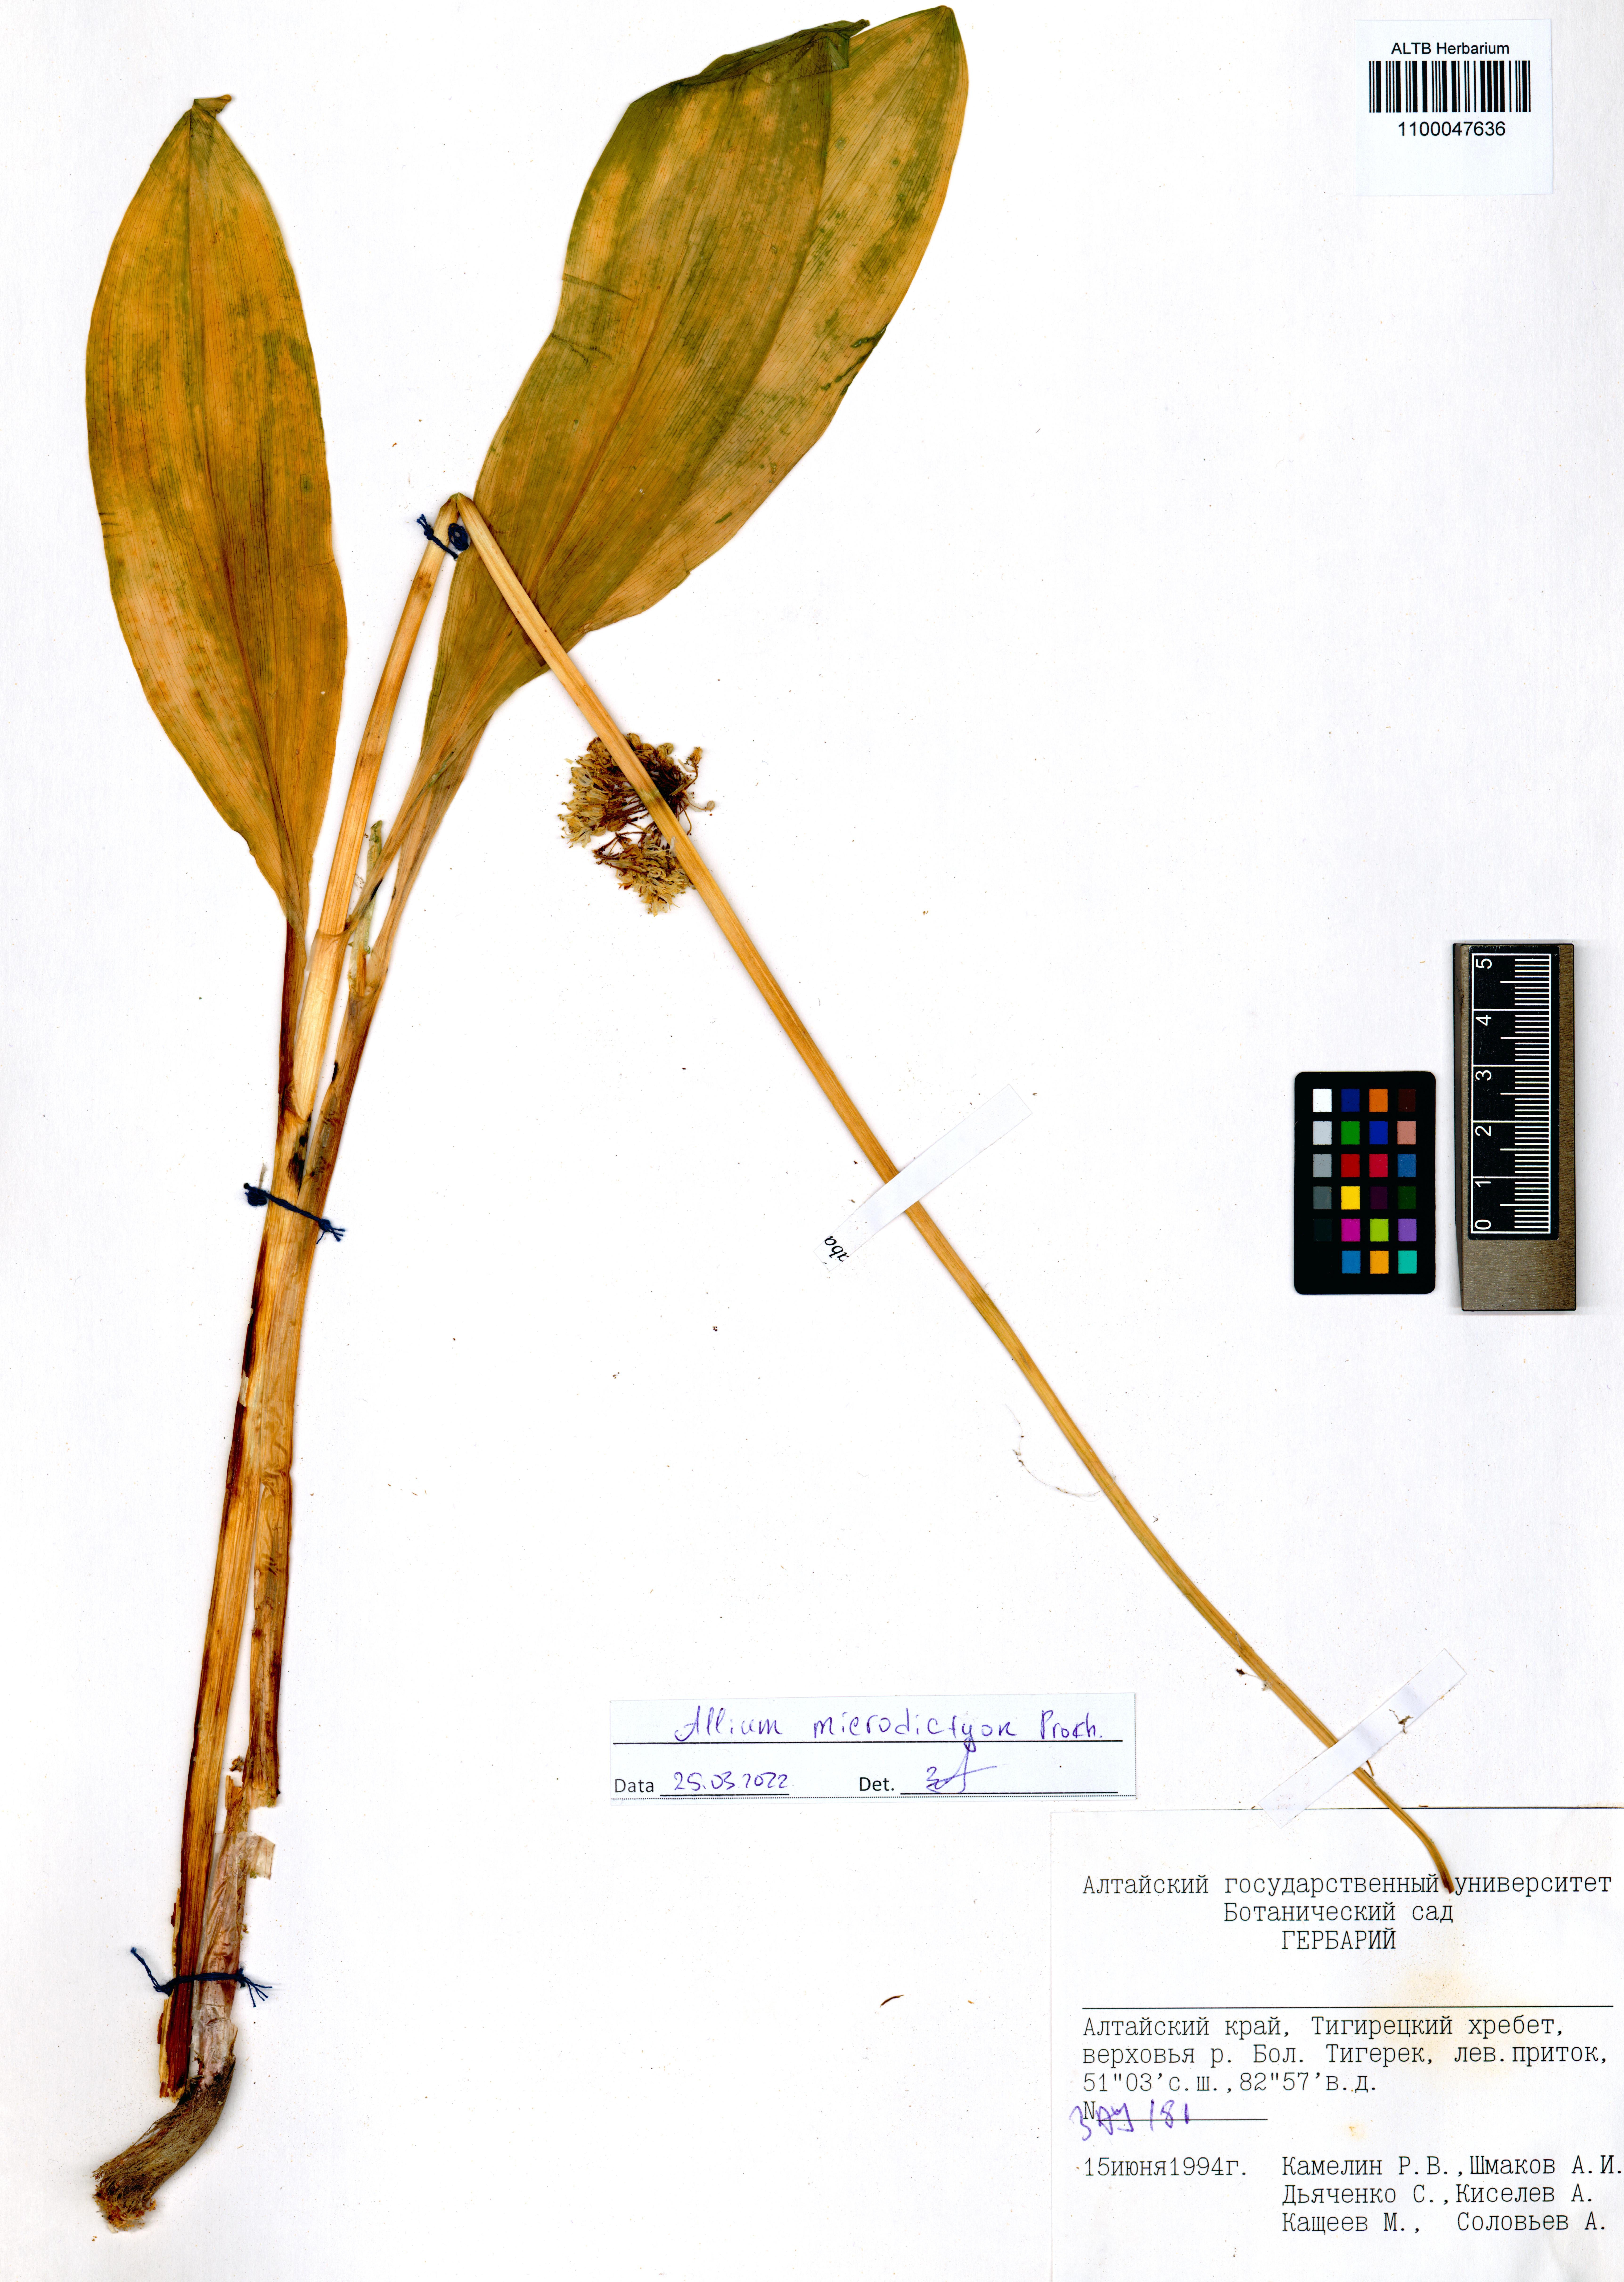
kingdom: Plantae
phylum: Tracheophyta
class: Liliopsida
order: Asparagales
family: Amaryllidaceae
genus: Allium
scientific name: Allium microdictyon
